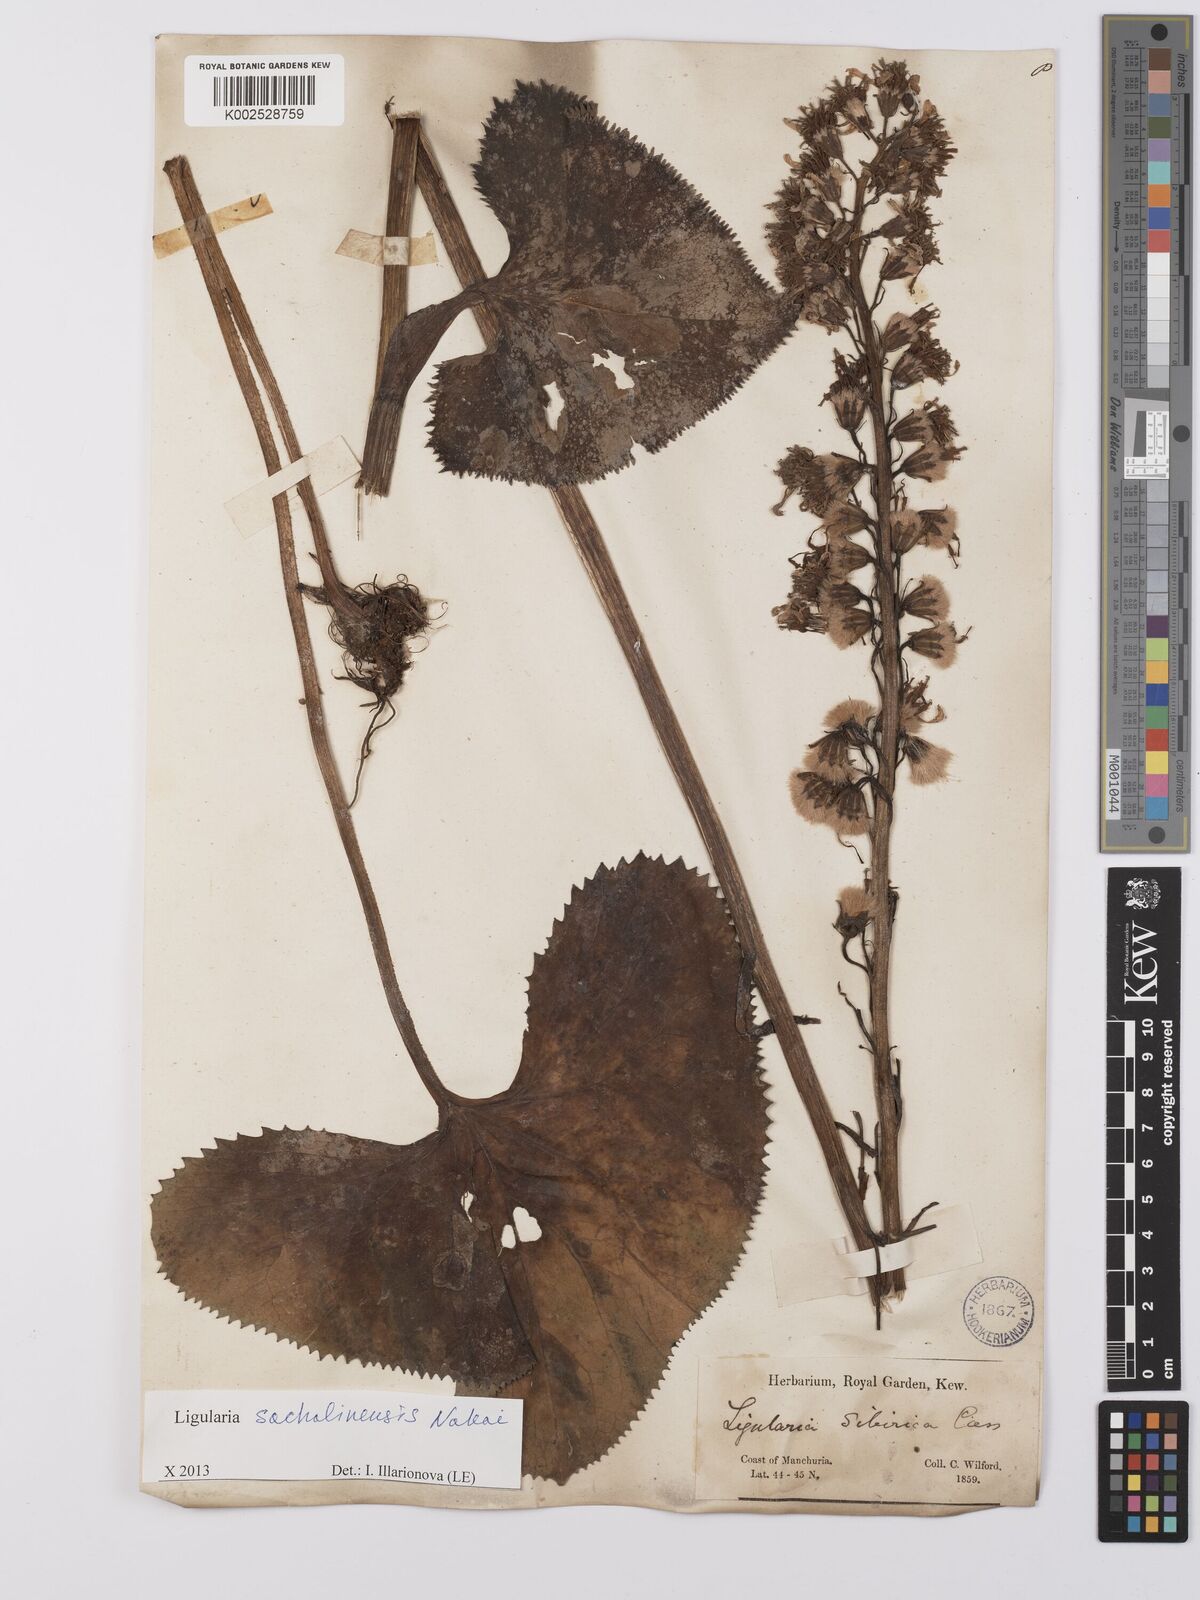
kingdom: Plantae
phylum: Tracheophyta
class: Magnoliopsida
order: Asterales
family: Asteraceae
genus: Ligularia
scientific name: Ligularia sachalinensis
